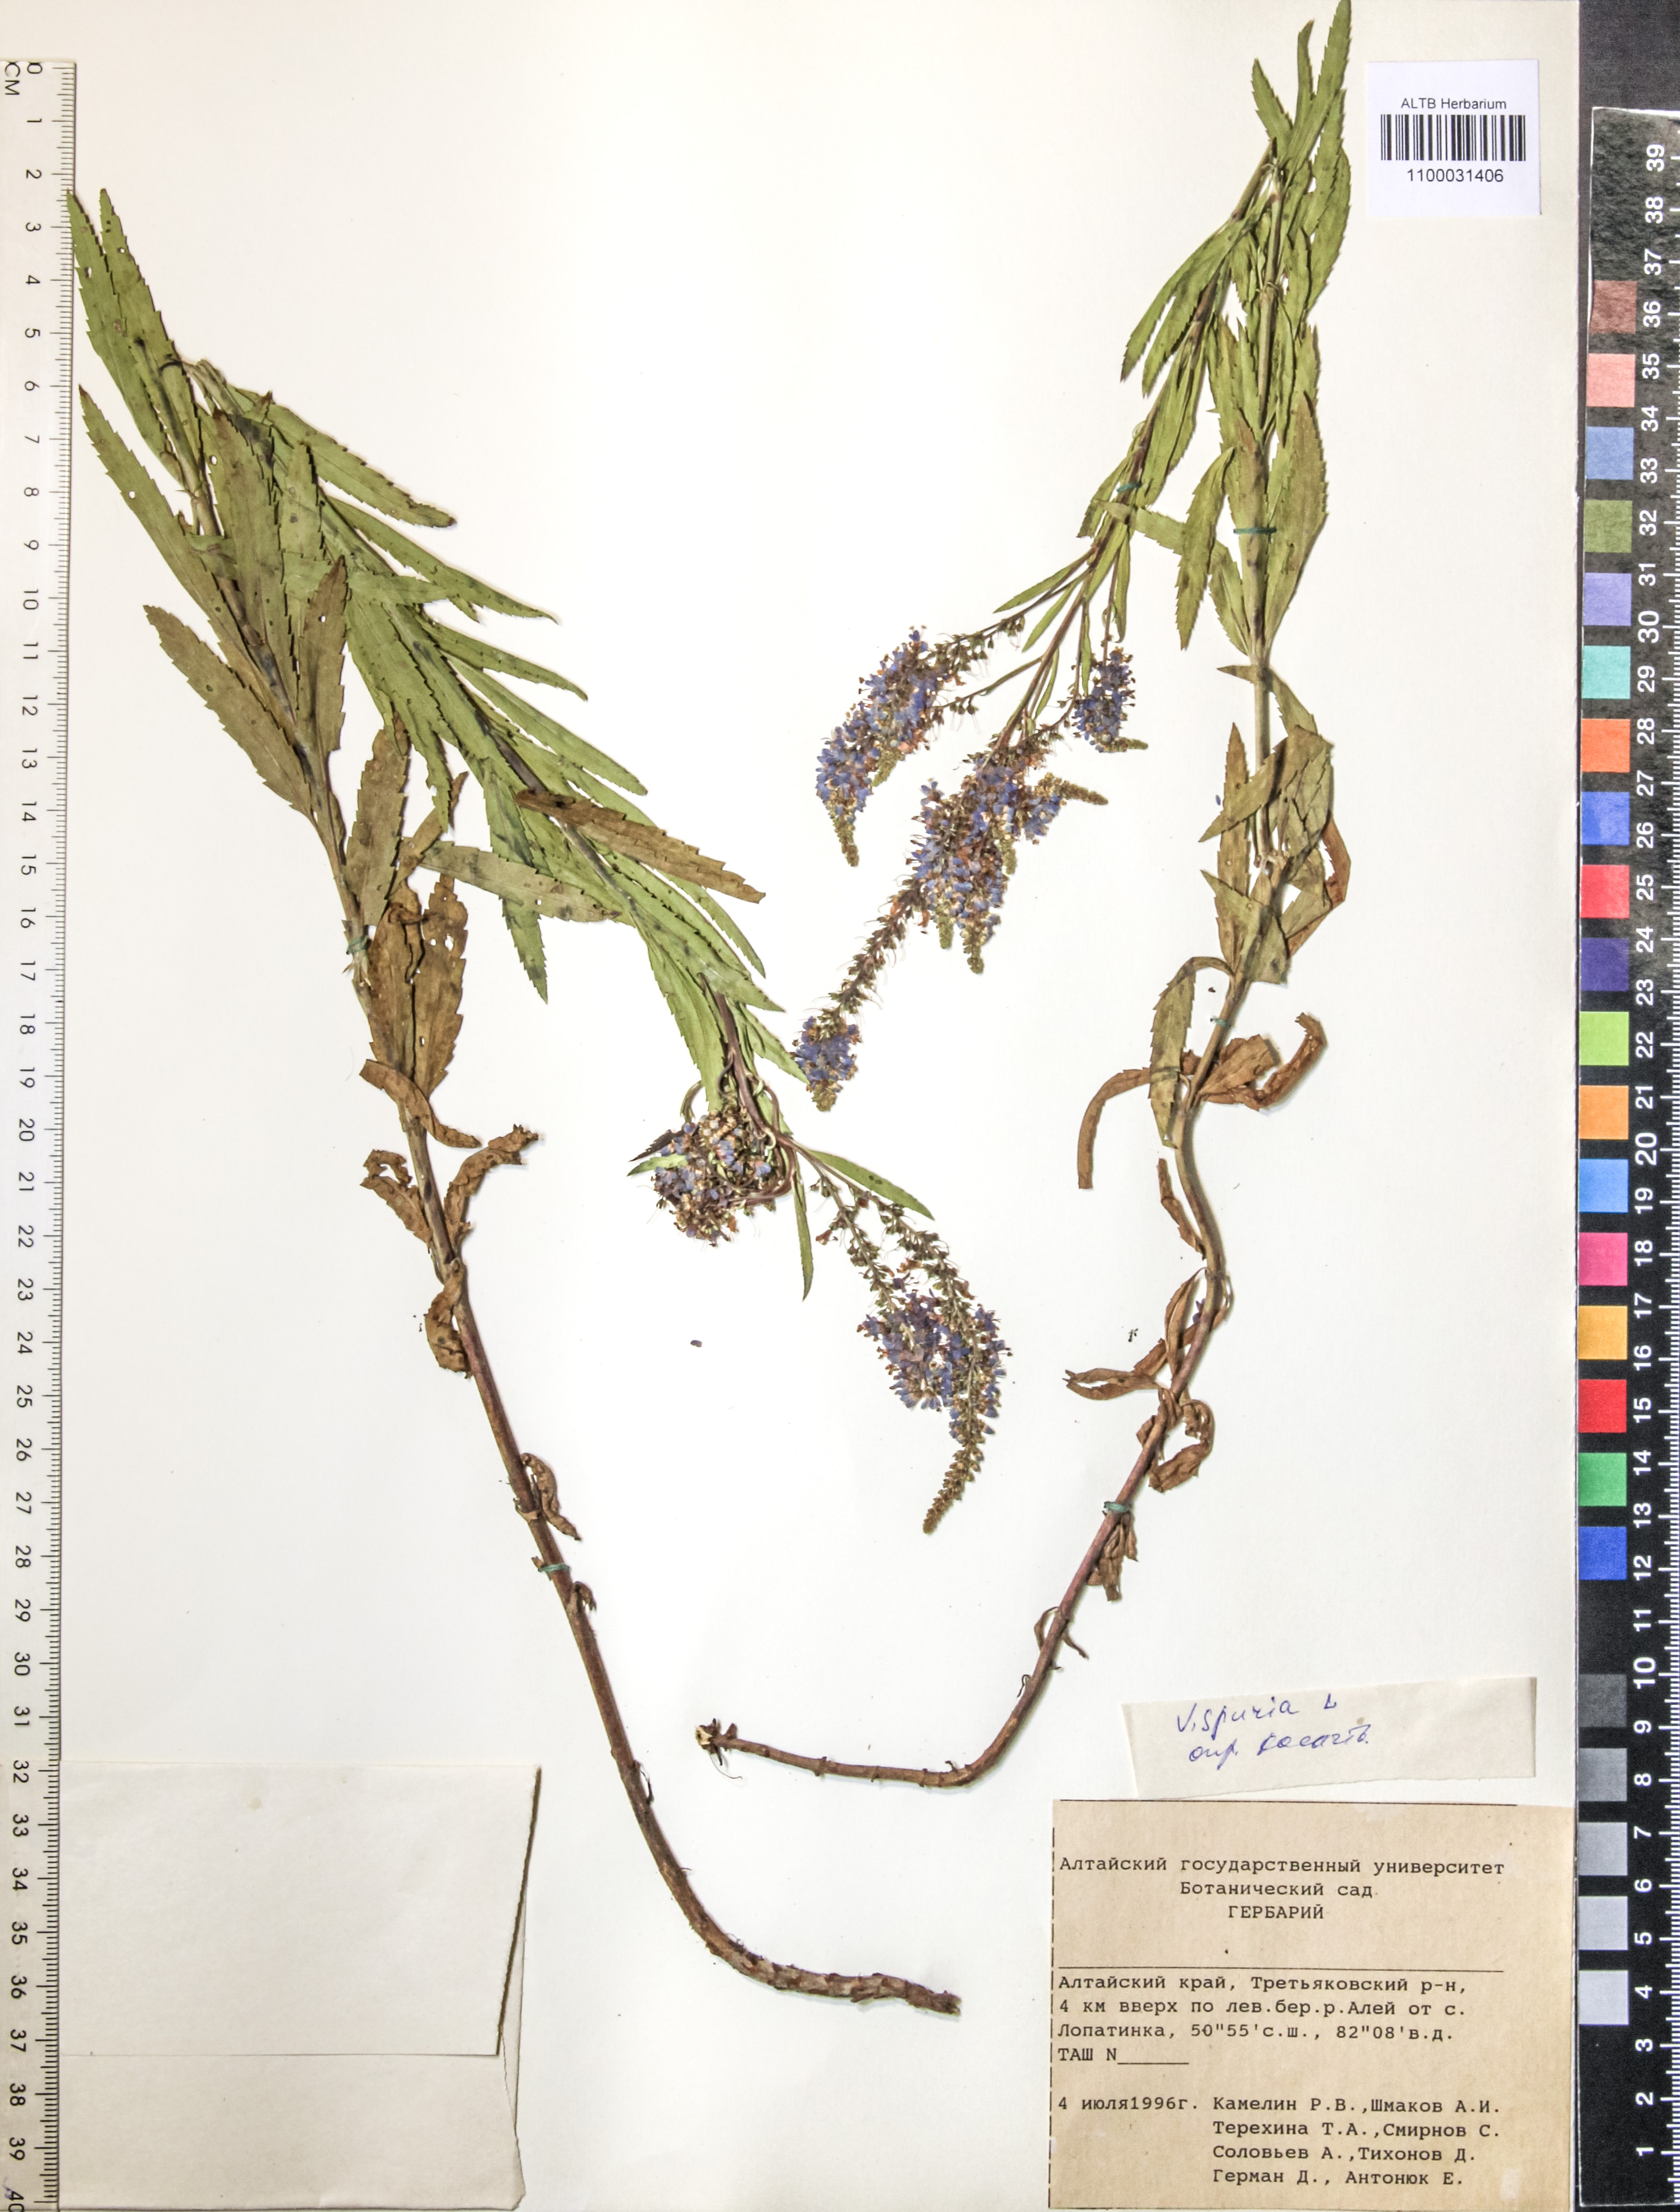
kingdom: Plantae
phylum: Tracheophyta
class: Magnoliopsida
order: Lamiales
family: Plantaginaceae
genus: Veronica
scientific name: Veronica spuria
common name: Bastard speedwell
